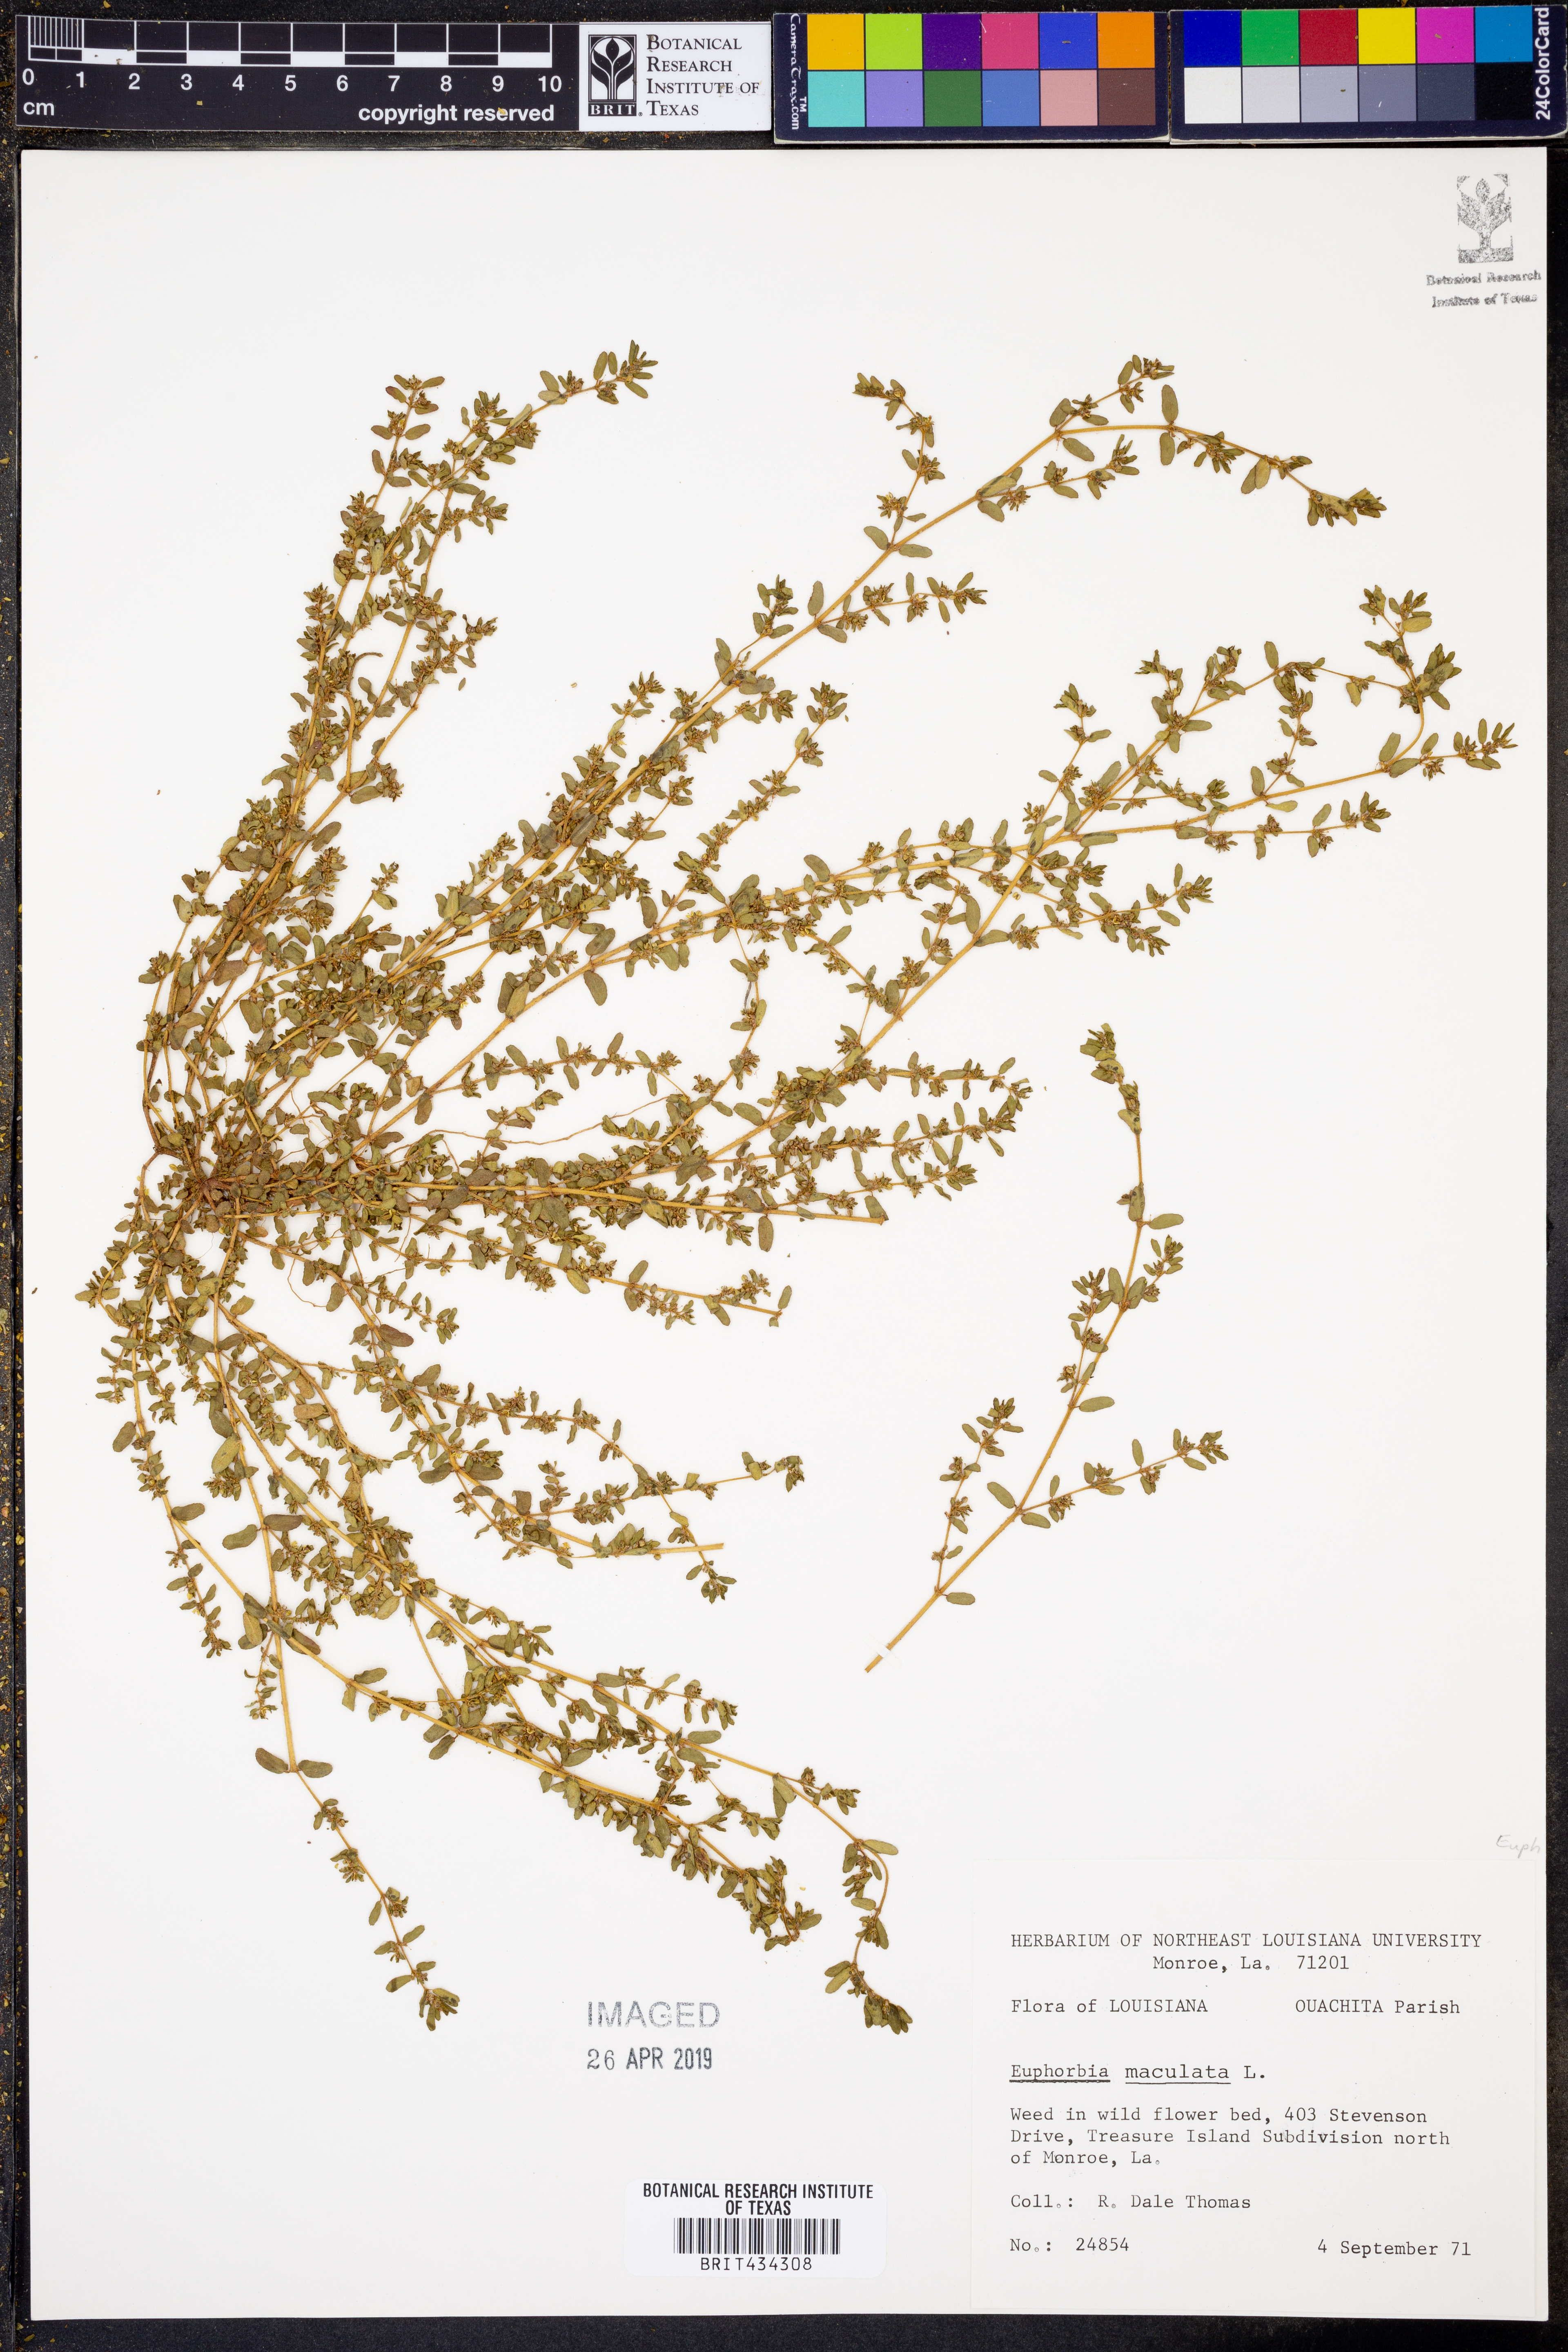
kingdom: Plantae
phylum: Tracheophyta
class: Magnoliopsida
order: Malpighiales
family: Euphorbiaceae
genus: Euphorbia
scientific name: Euphorbia maculata
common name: Spotted spurge
